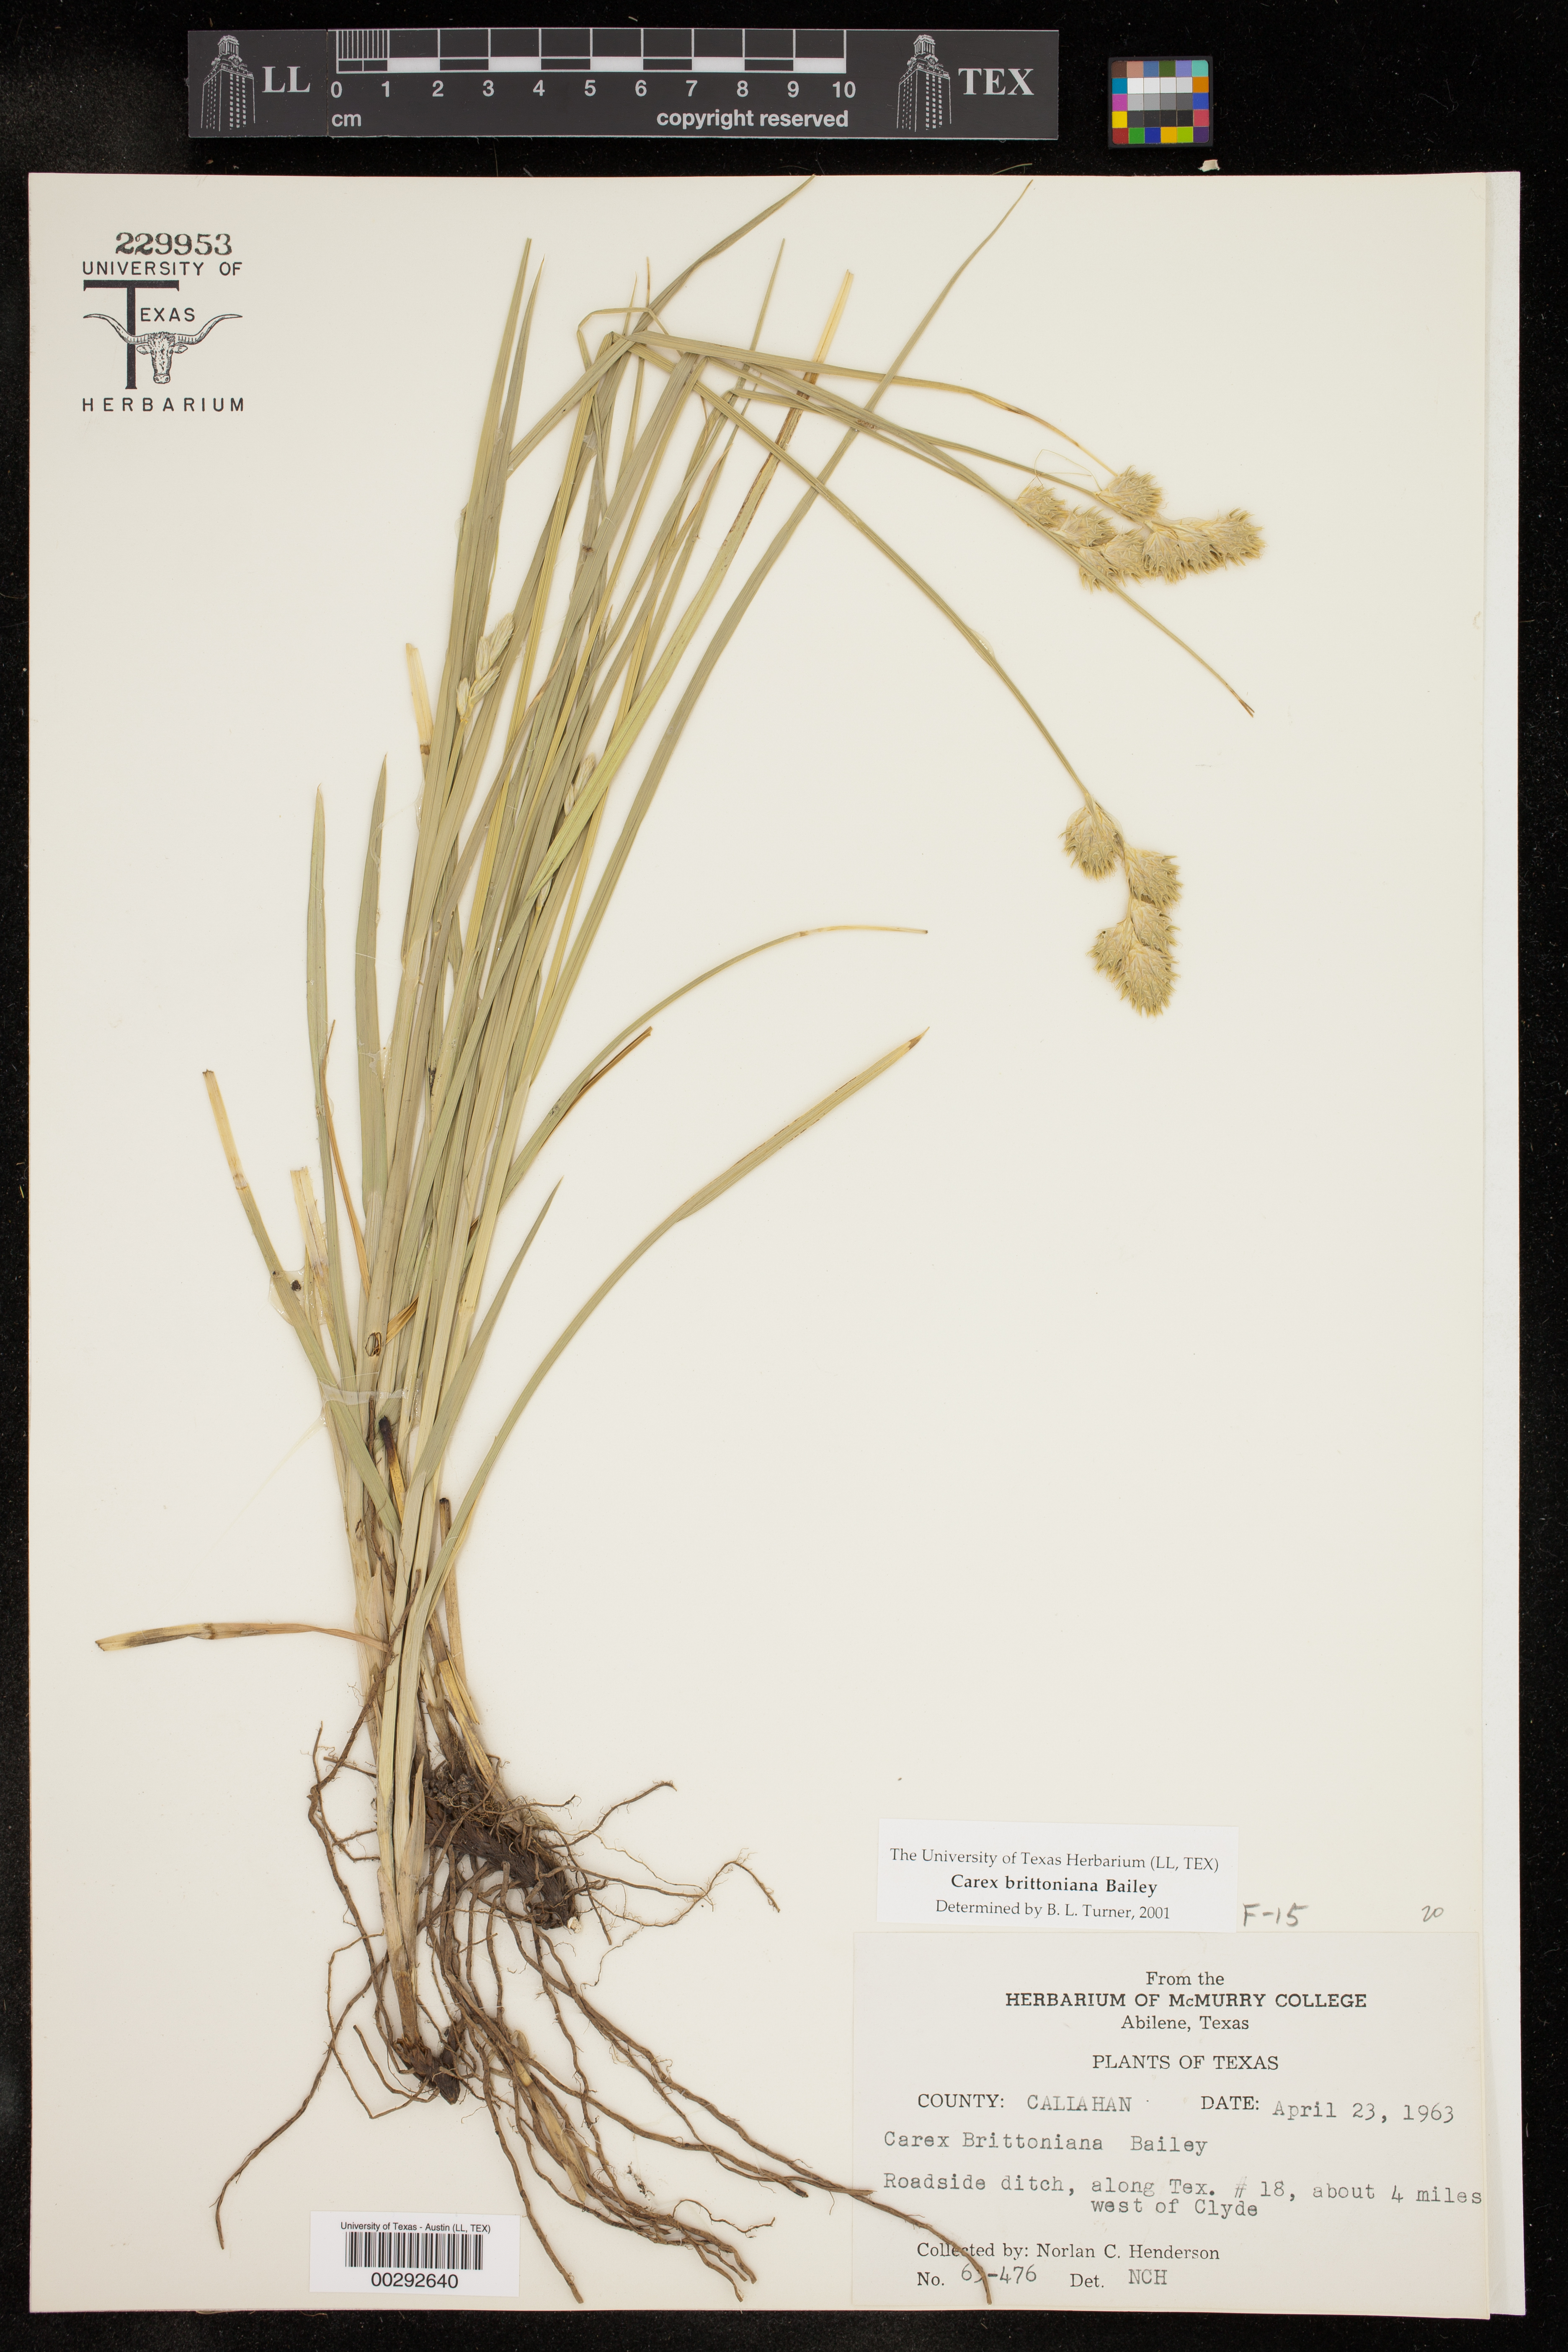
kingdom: Plantae
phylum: Tracheophyta
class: Liliopsida
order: Poales
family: Cyperaceae
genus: Carex
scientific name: Carex tetrastachya
